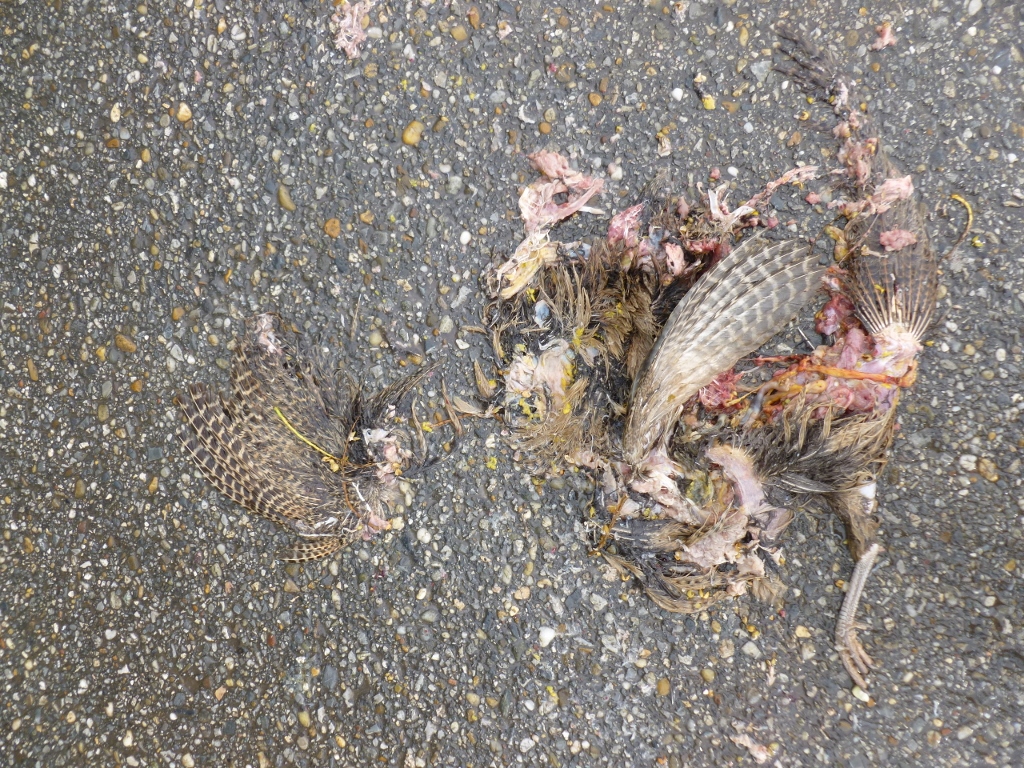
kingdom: Animalia
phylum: Chordata
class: Aves
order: Galliformes
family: Phasianidae
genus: Phasianus
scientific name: Phasianus colchicus
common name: Common pheasant
